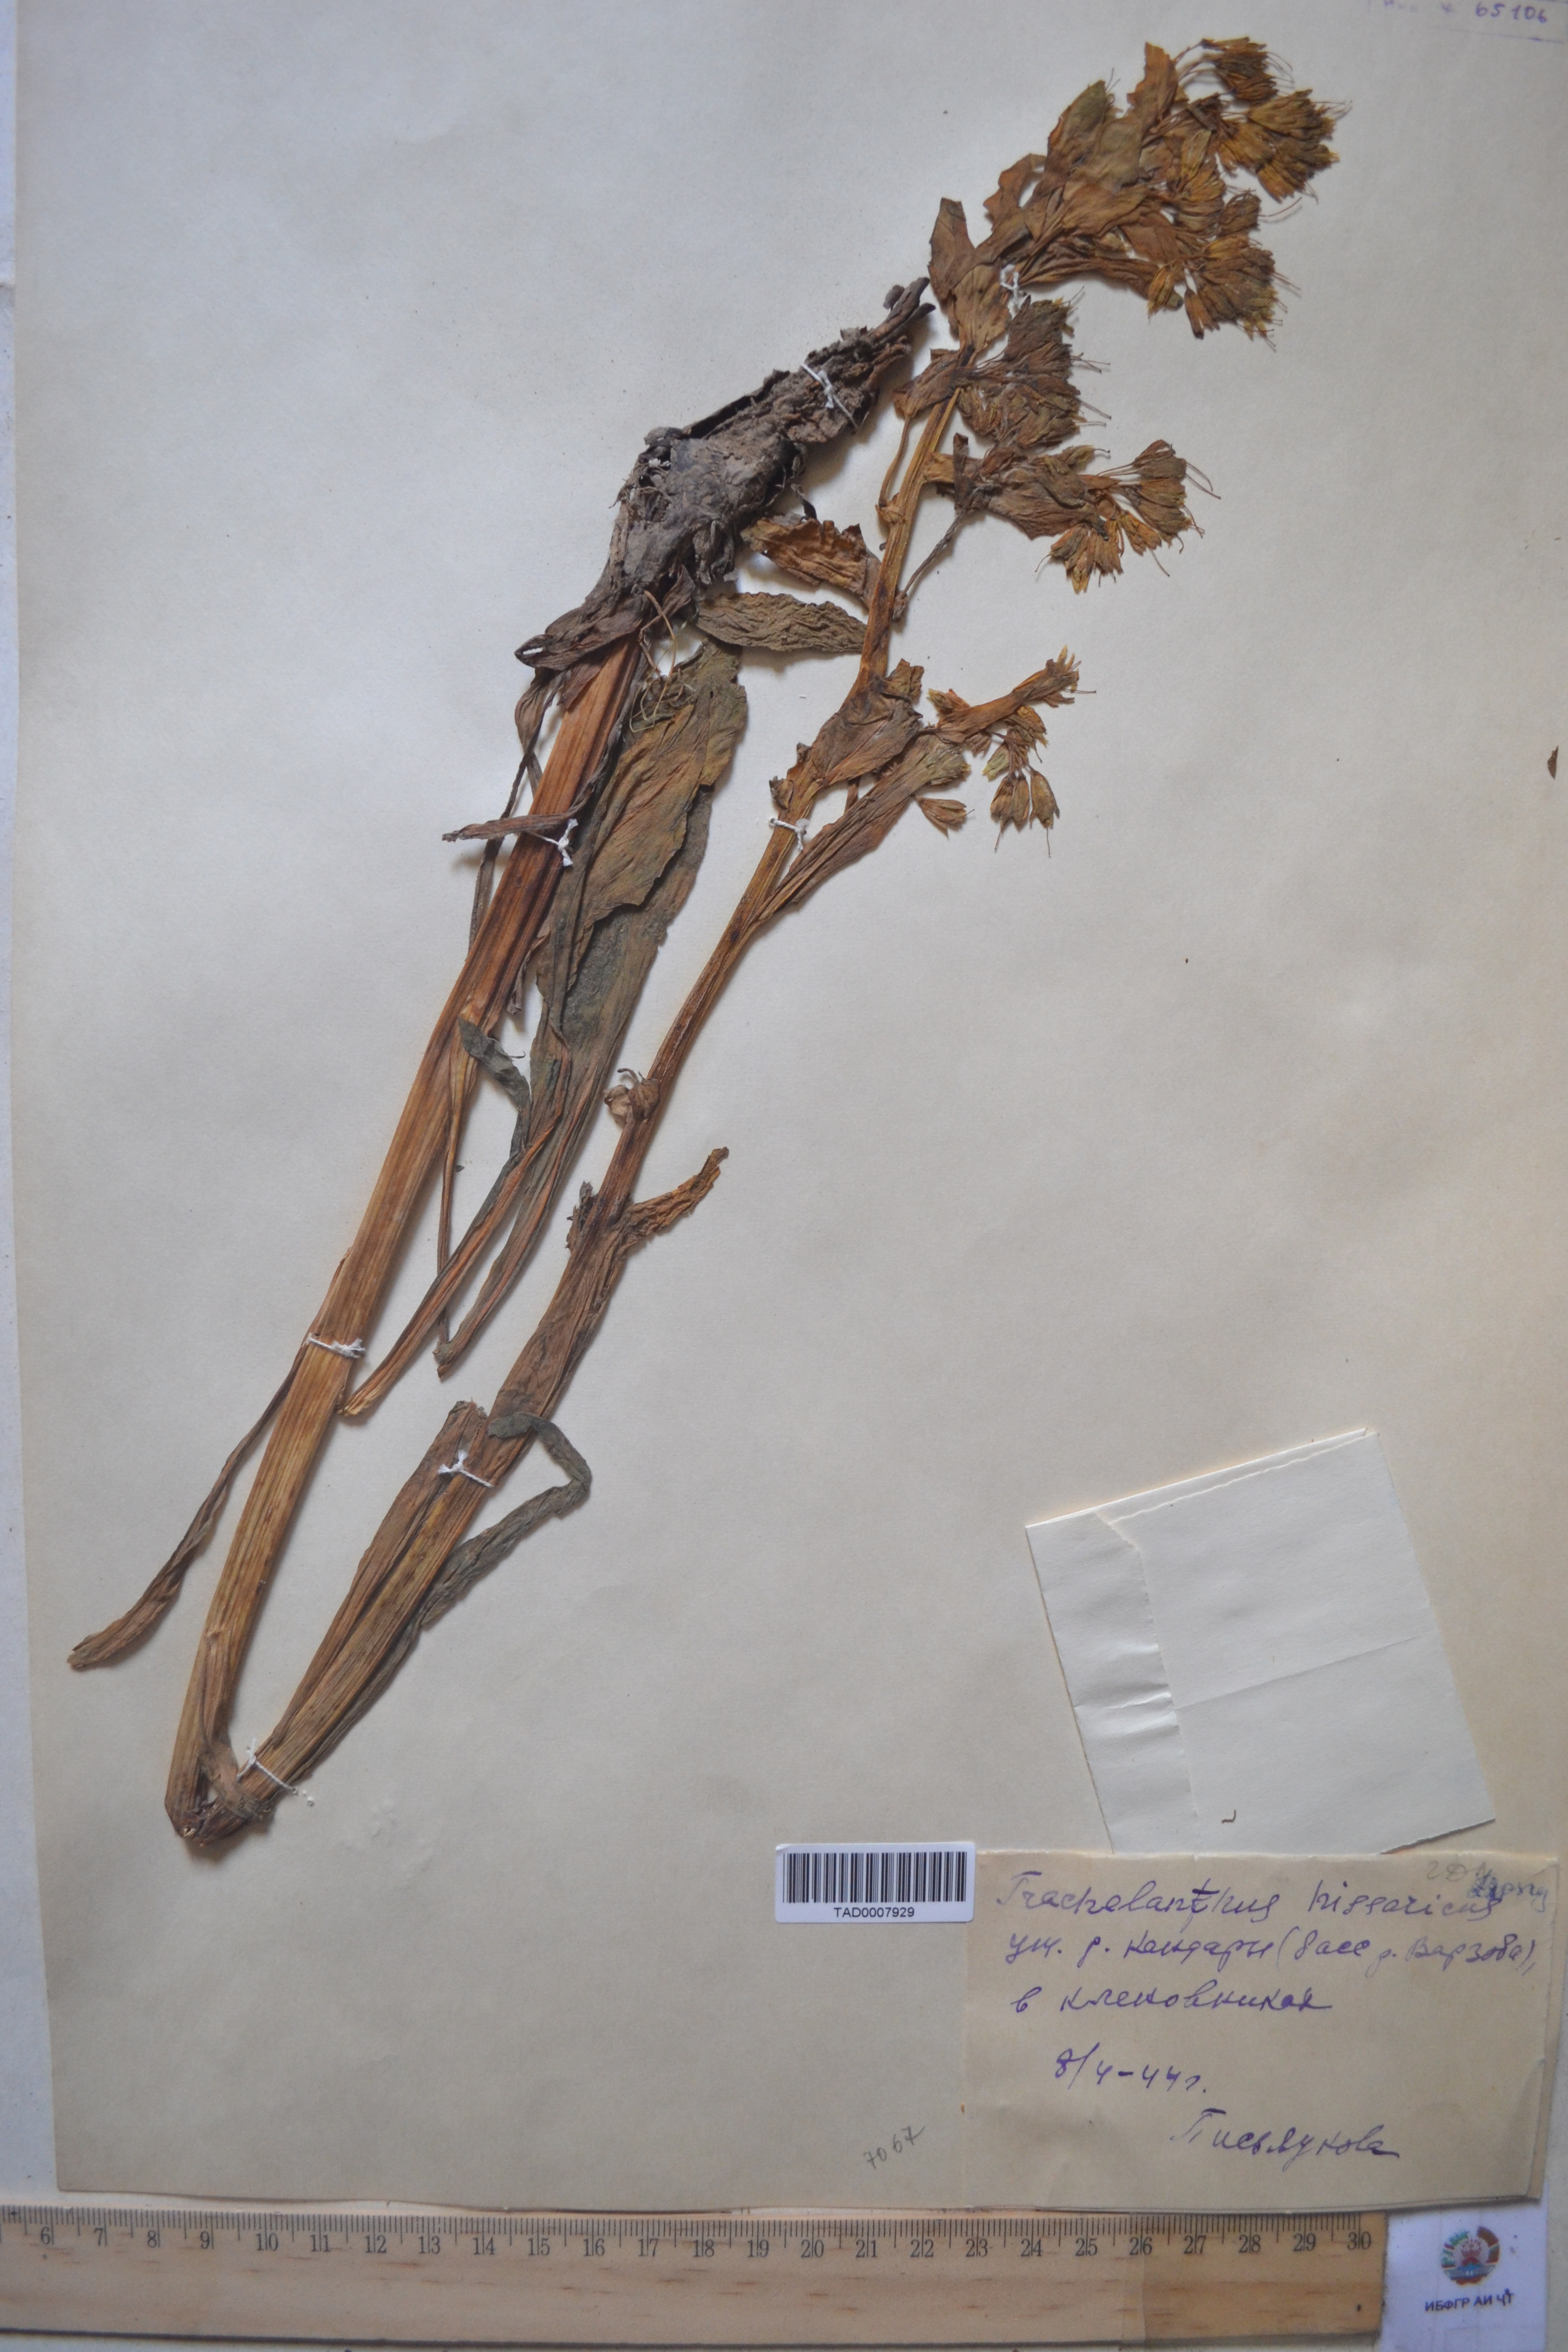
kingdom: Plantae
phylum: Tracheophyta
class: Magnoliopsida
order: Boraginales
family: Boraginaceae
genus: Lindelofia
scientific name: Lindelofia hissarica
